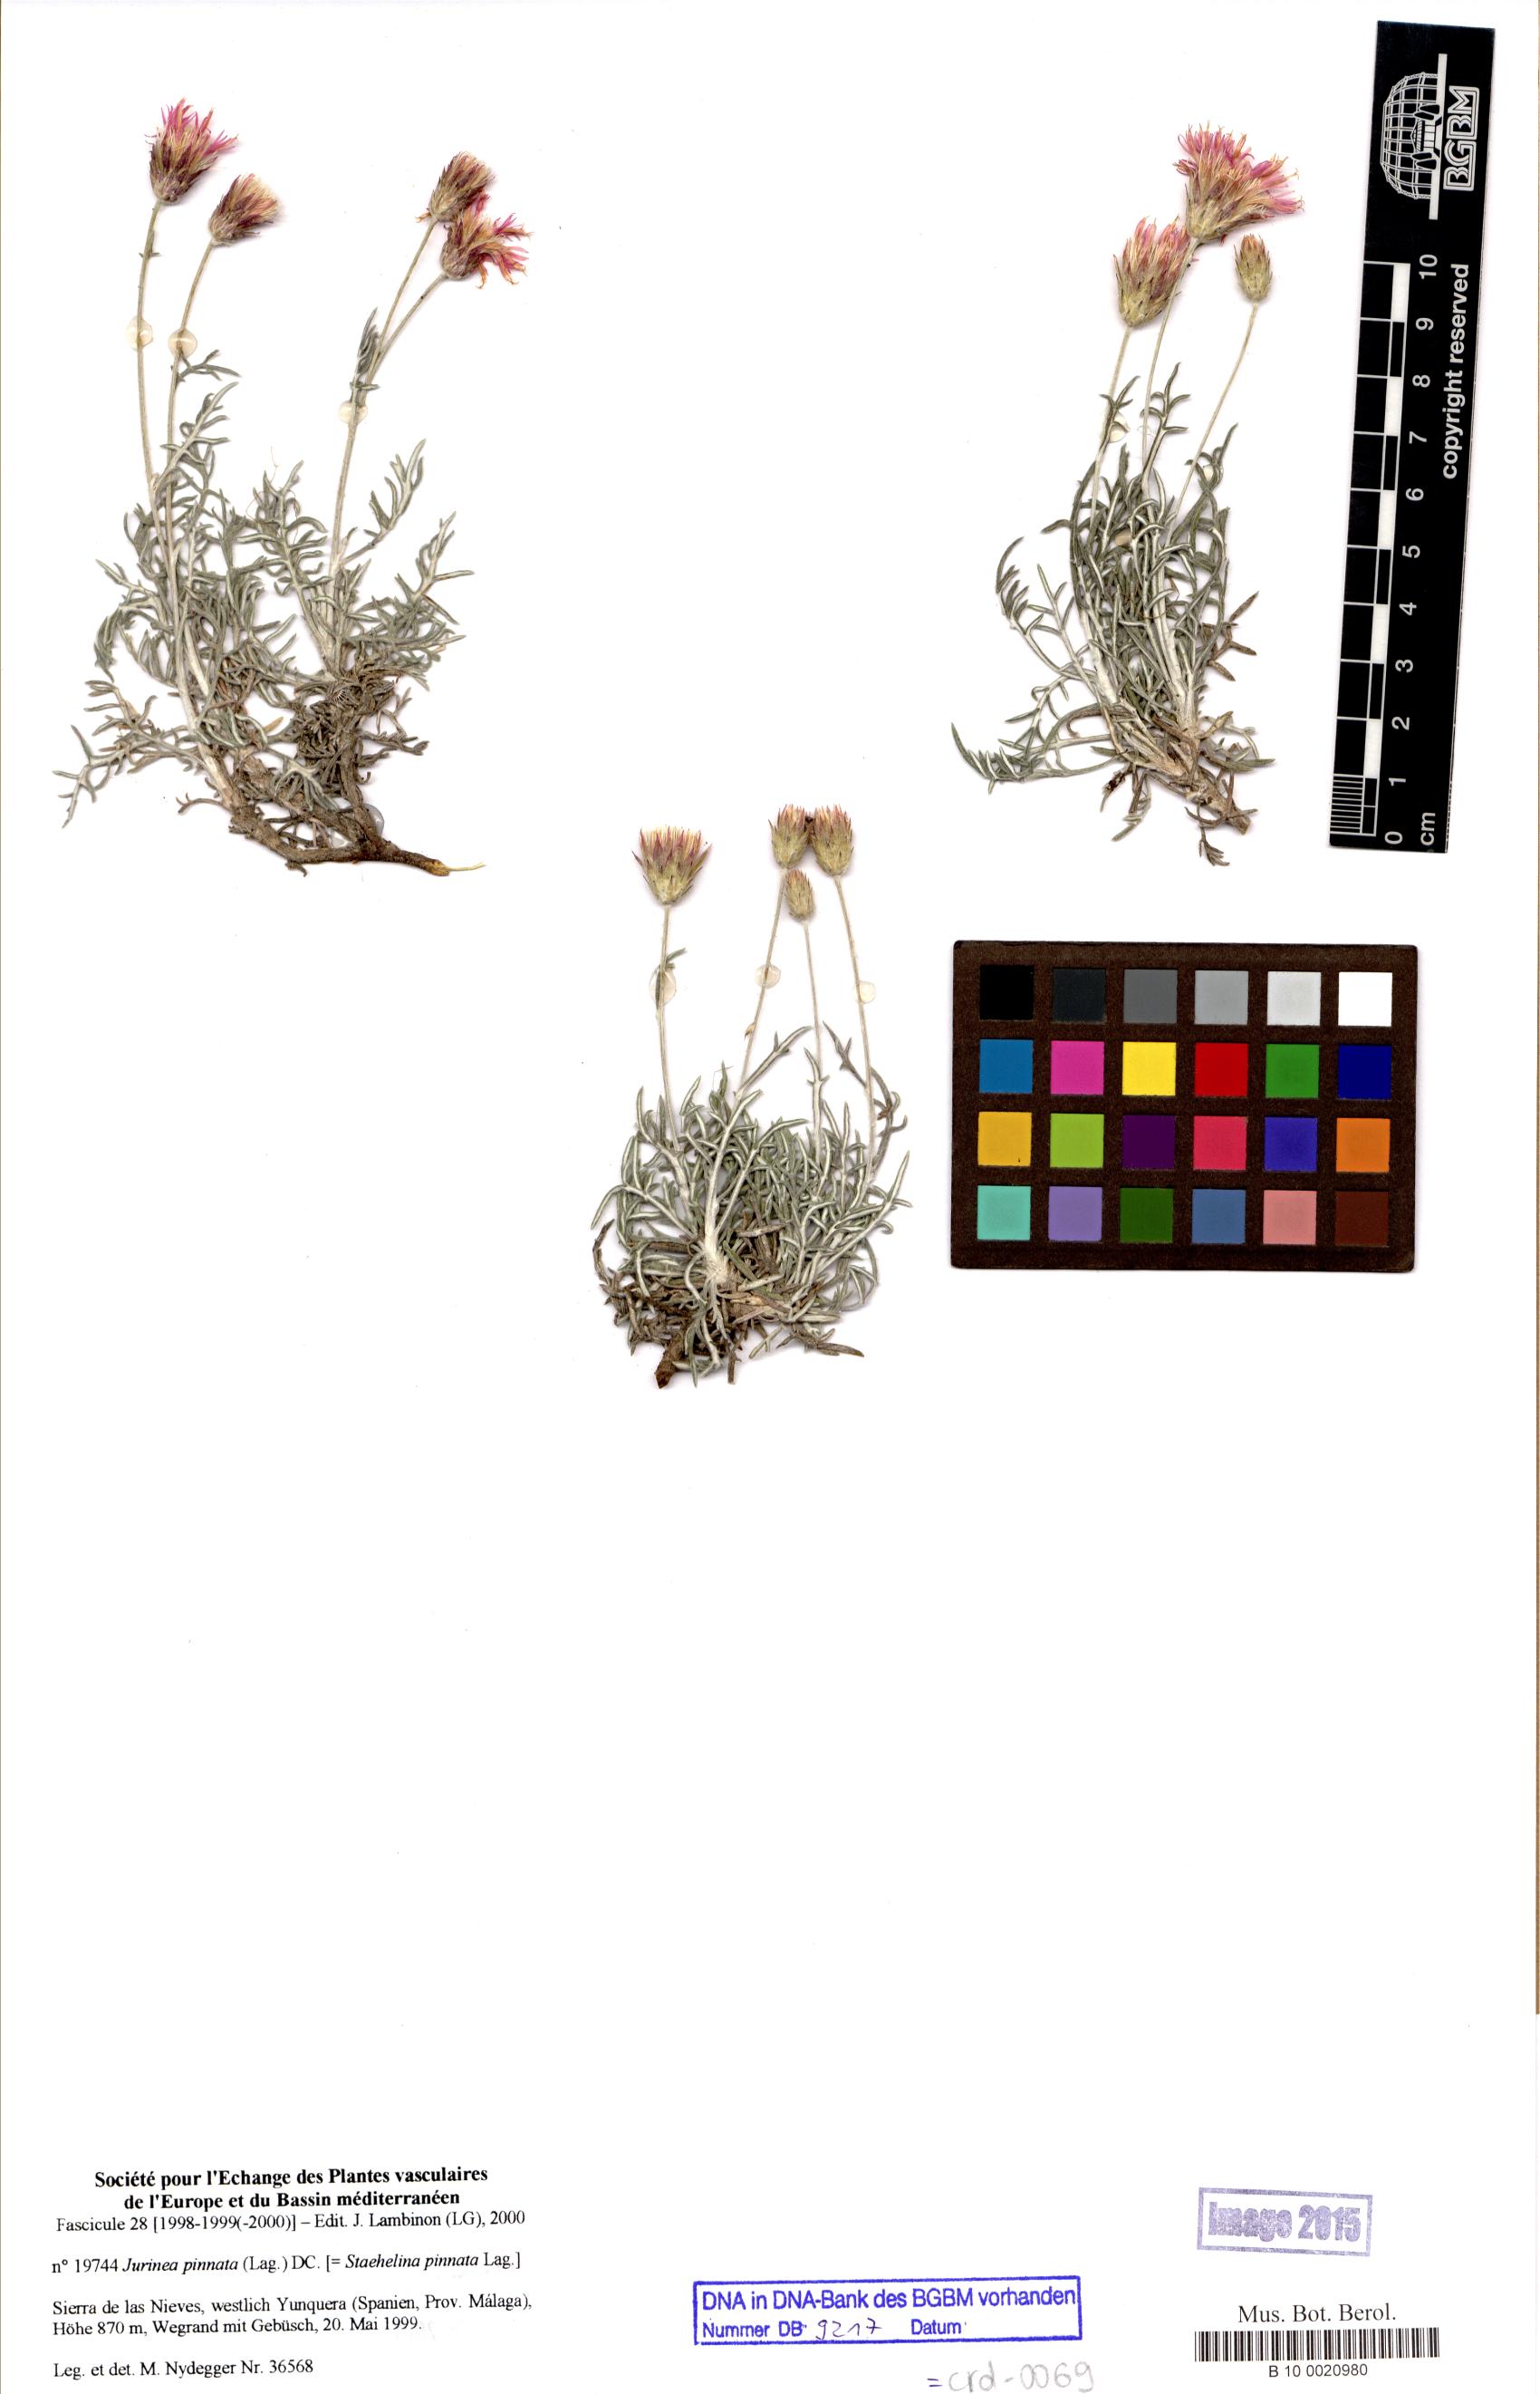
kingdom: Plantae
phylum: Tracheophyta
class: Magnoliopsida
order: Asterales
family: Asteraceae
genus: Jurinea
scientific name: Jurinea pinnata
